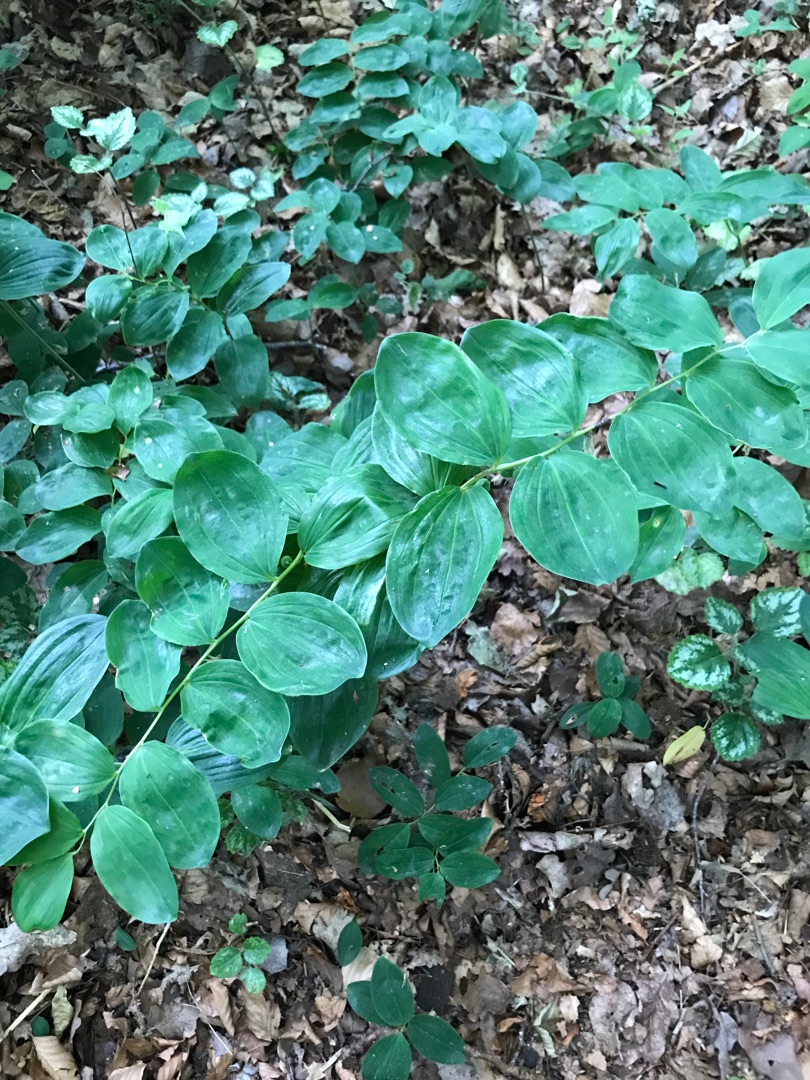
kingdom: Plantae
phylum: Tracheophyta
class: Liliopsida
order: Asparagales
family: Asparagaceae
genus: Polygonatum
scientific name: Polygonatum multiflorum
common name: Stor konval
